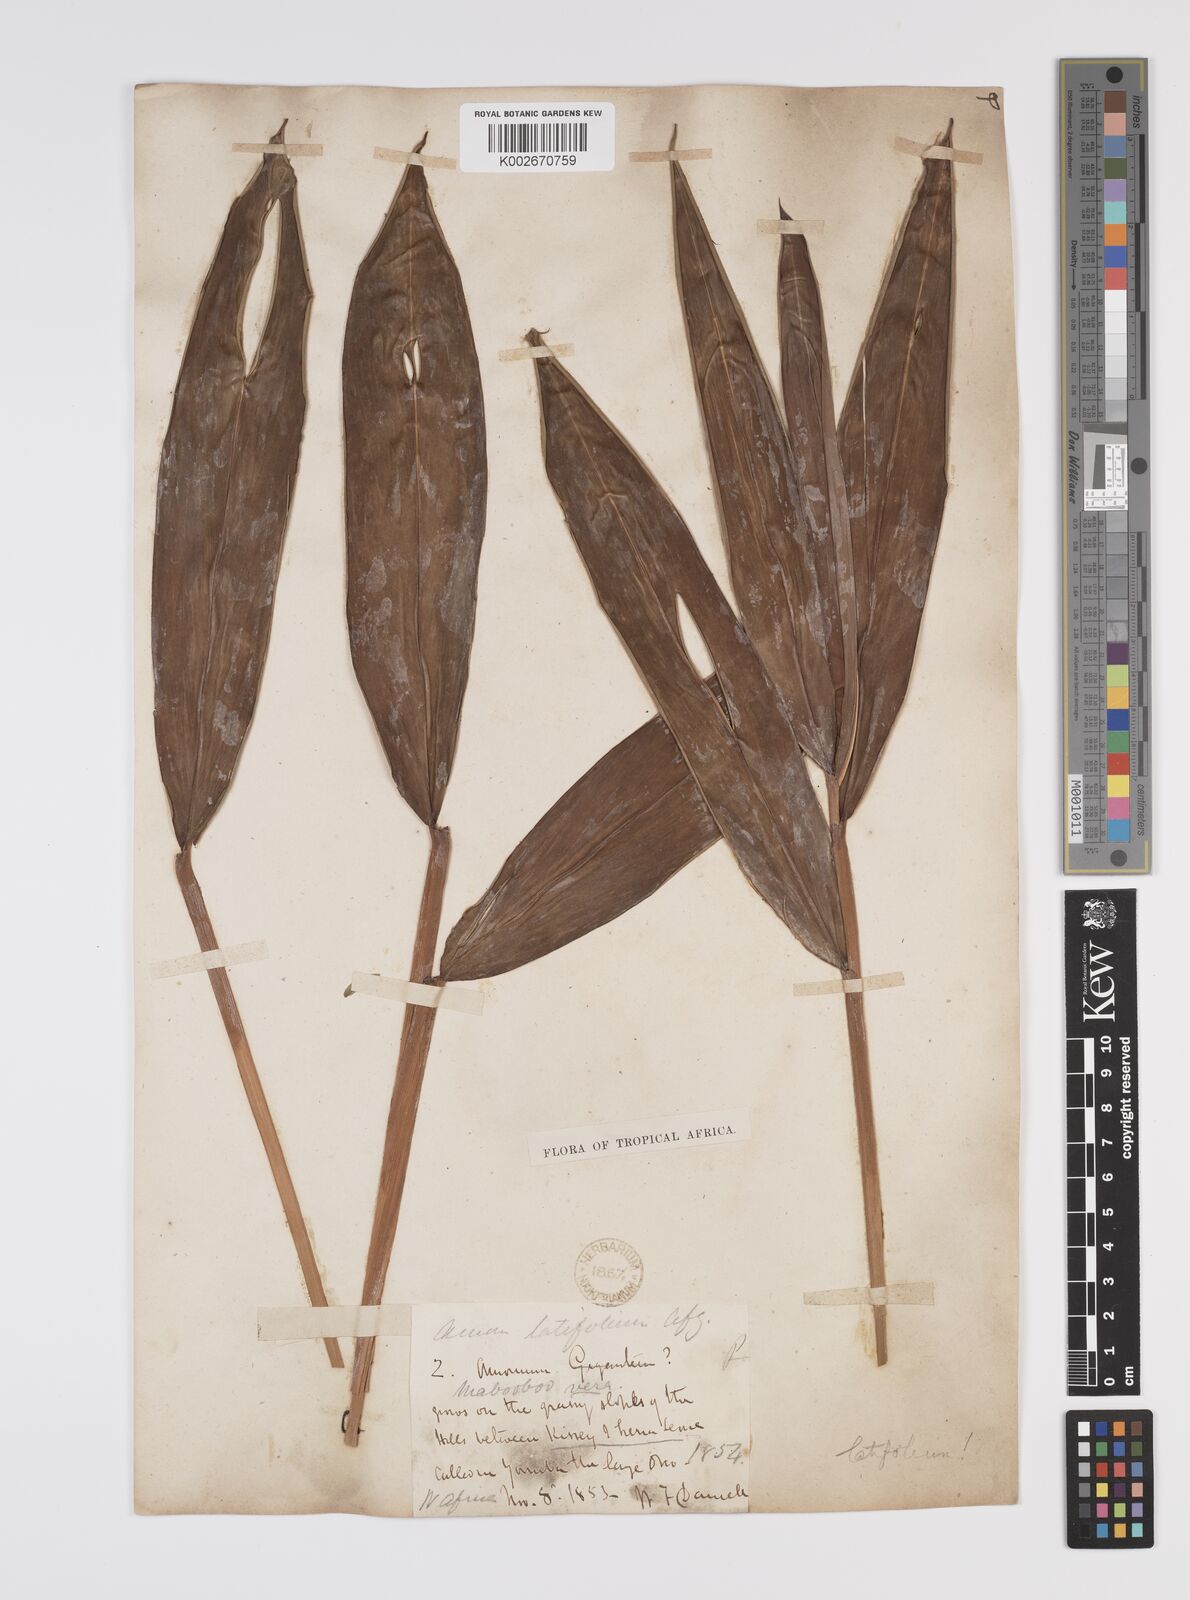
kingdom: Plantae
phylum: Tracheophyta
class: Liliopsida
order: Zingiberales
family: Zingiberaceae
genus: Aframomum
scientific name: Aframomum alboviolaceum
